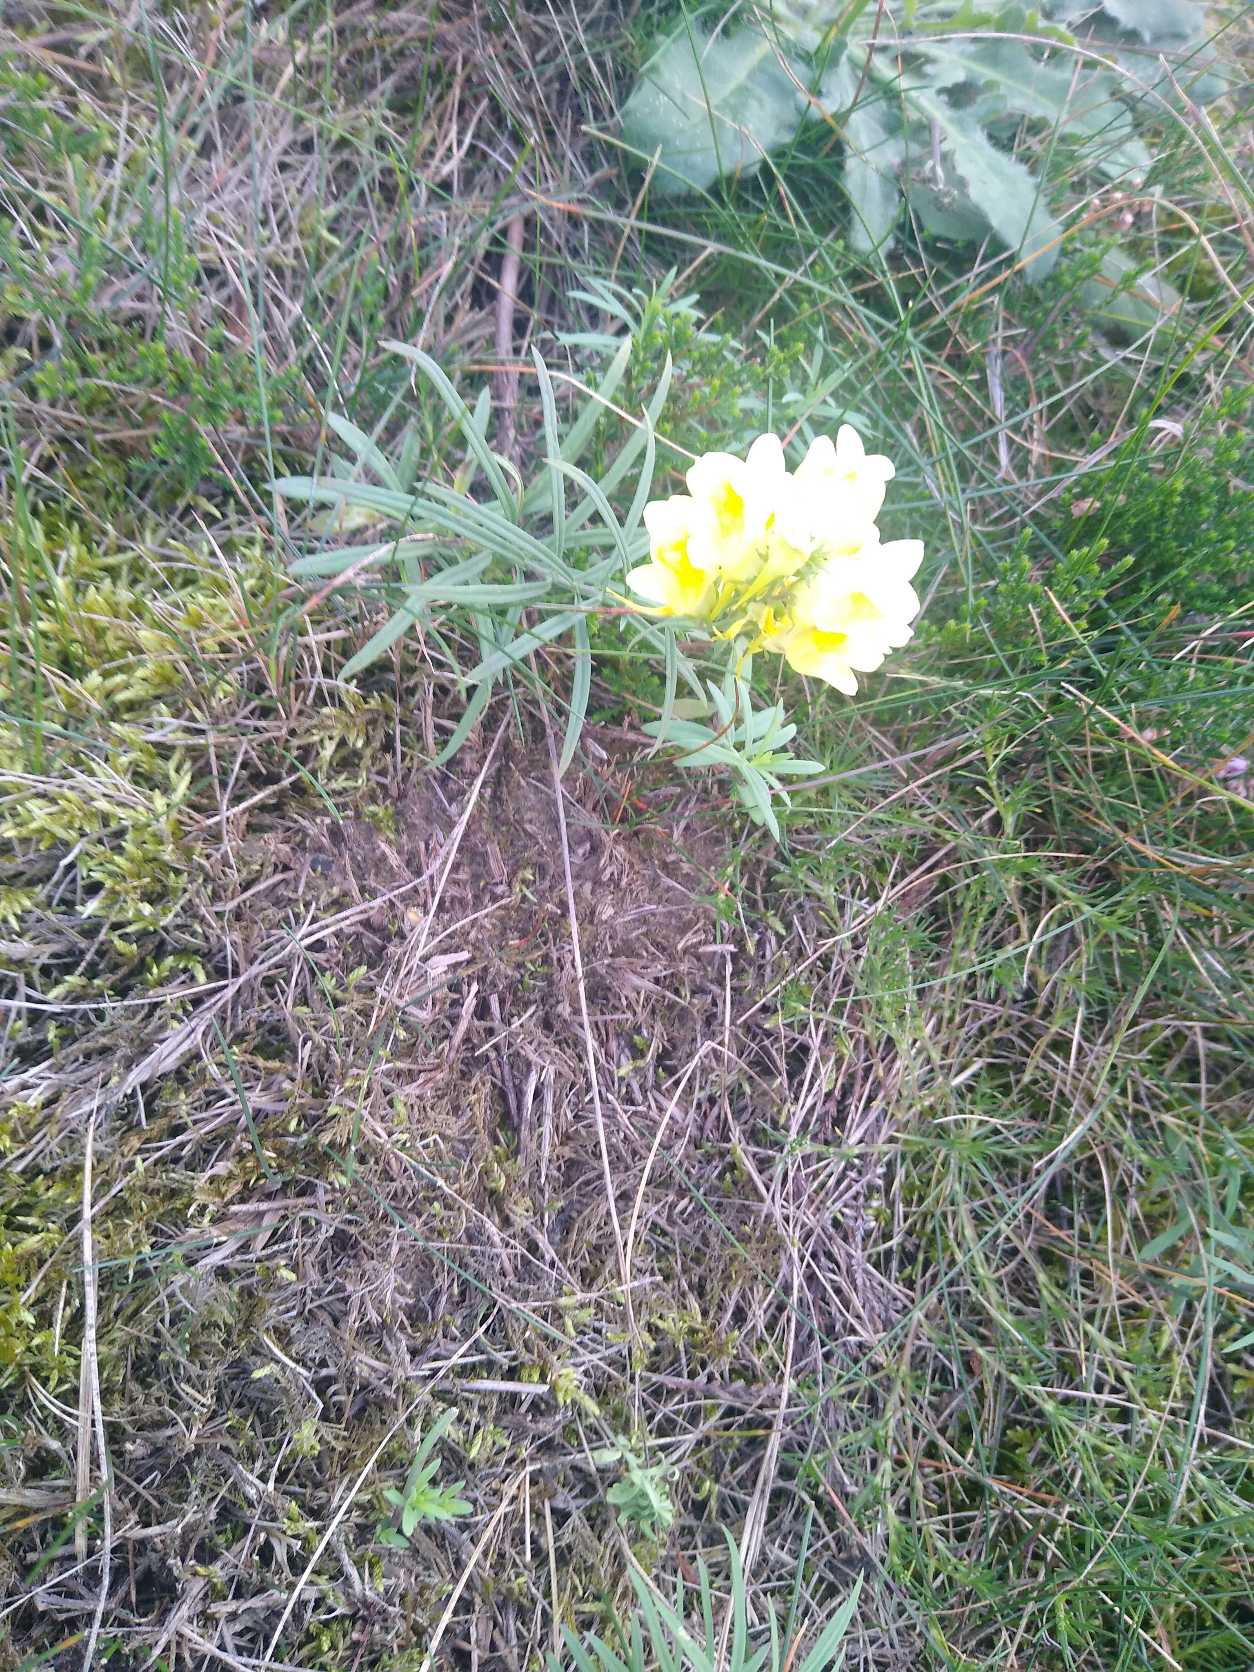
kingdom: Plantae
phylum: Tracheophyta
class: Magnoliopsida
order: Lamiales
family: Plantaginaceae
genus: Linaria
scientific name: Linaria vulgaris
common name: Almindelig torskemund
